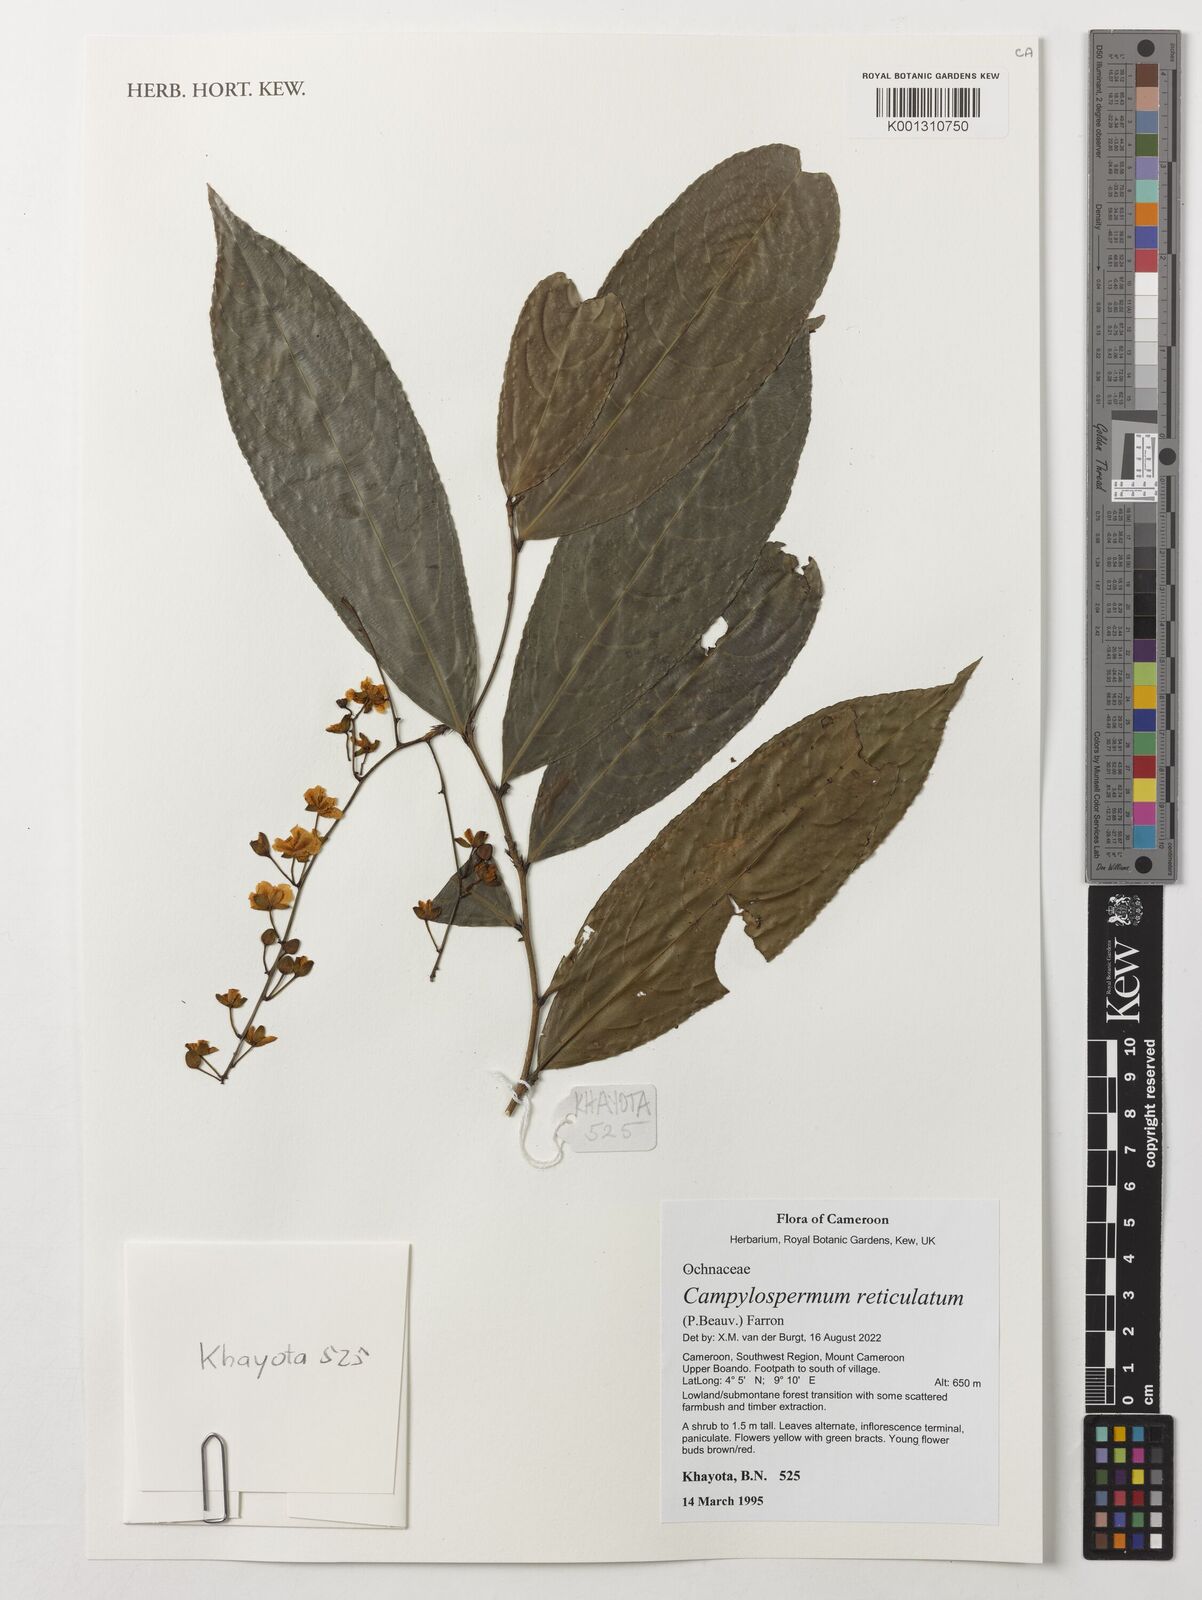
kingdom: Plantae
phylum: Tracheophyta
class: Magnoliopsida
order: Malpighiales
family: Ochnaceae
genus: Campylospermum
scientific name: Campylospermum reticulatum
